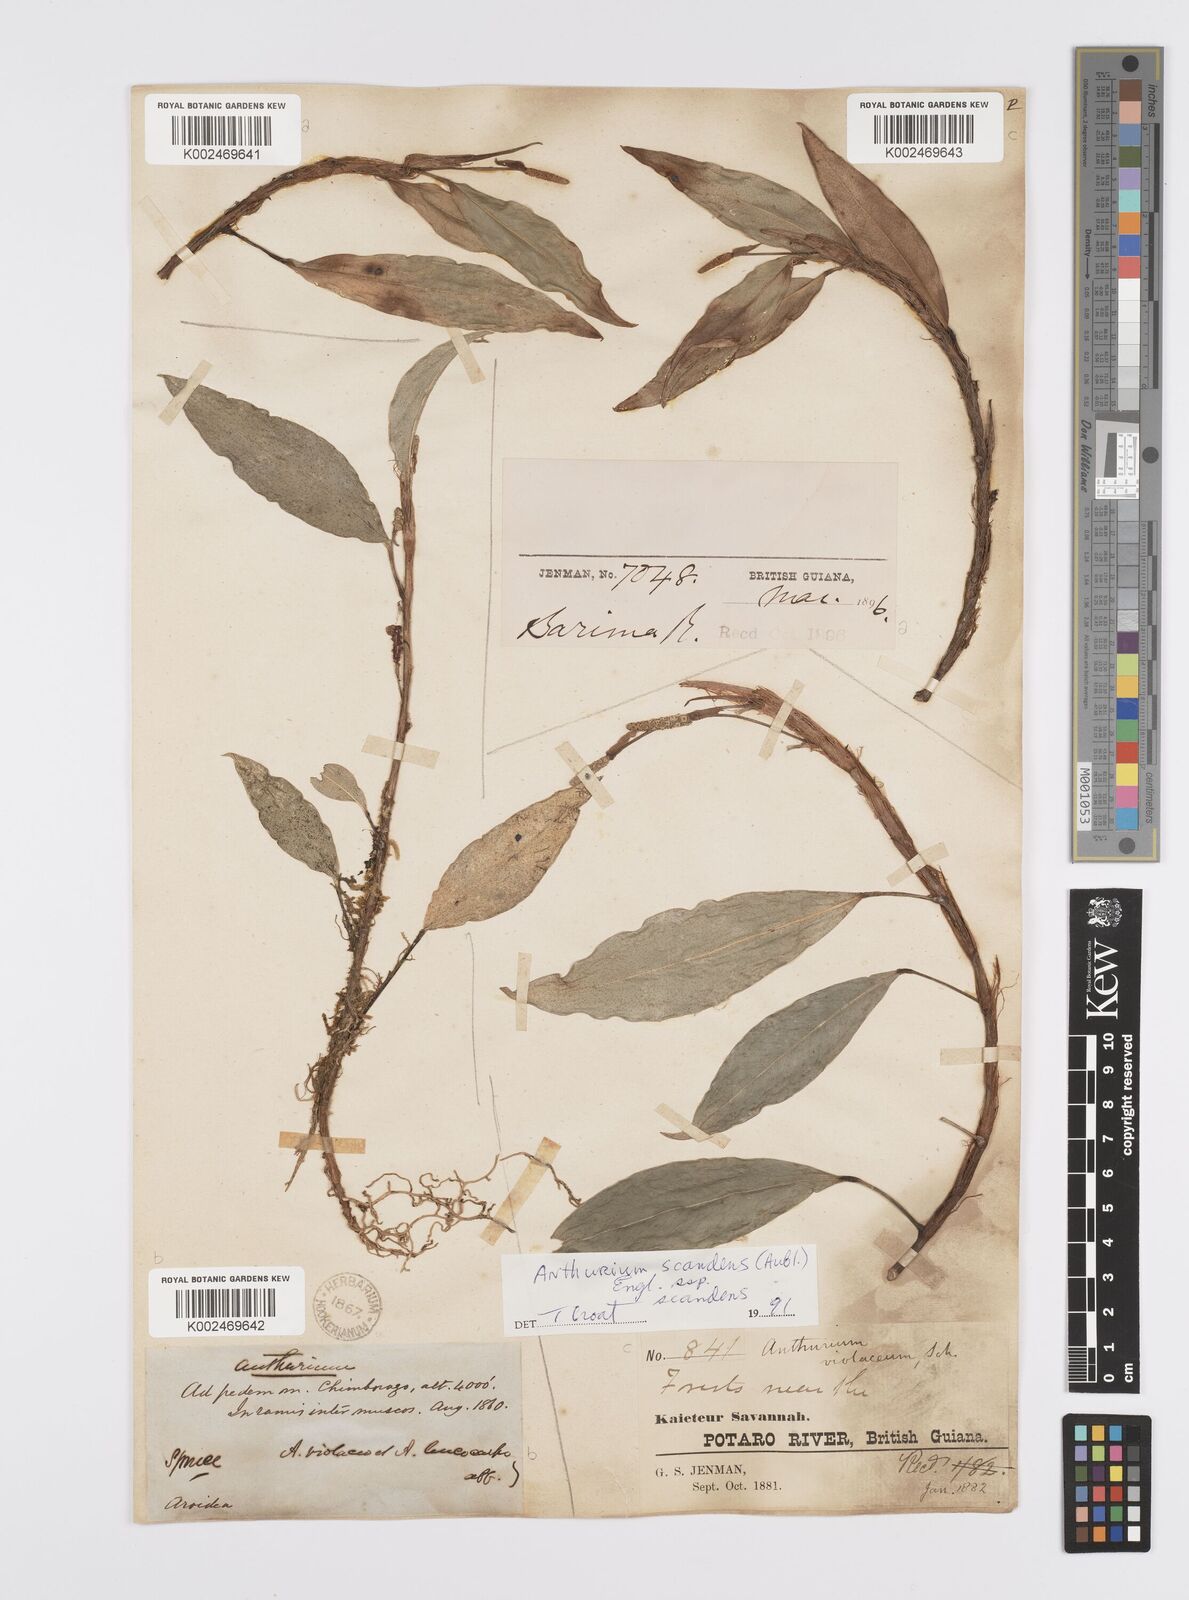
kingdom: Plantae
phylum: Tracheophyta
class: Liliopsida
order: Alismatales
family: Araceae
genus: Anthurium
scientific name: Anthurium scandens
